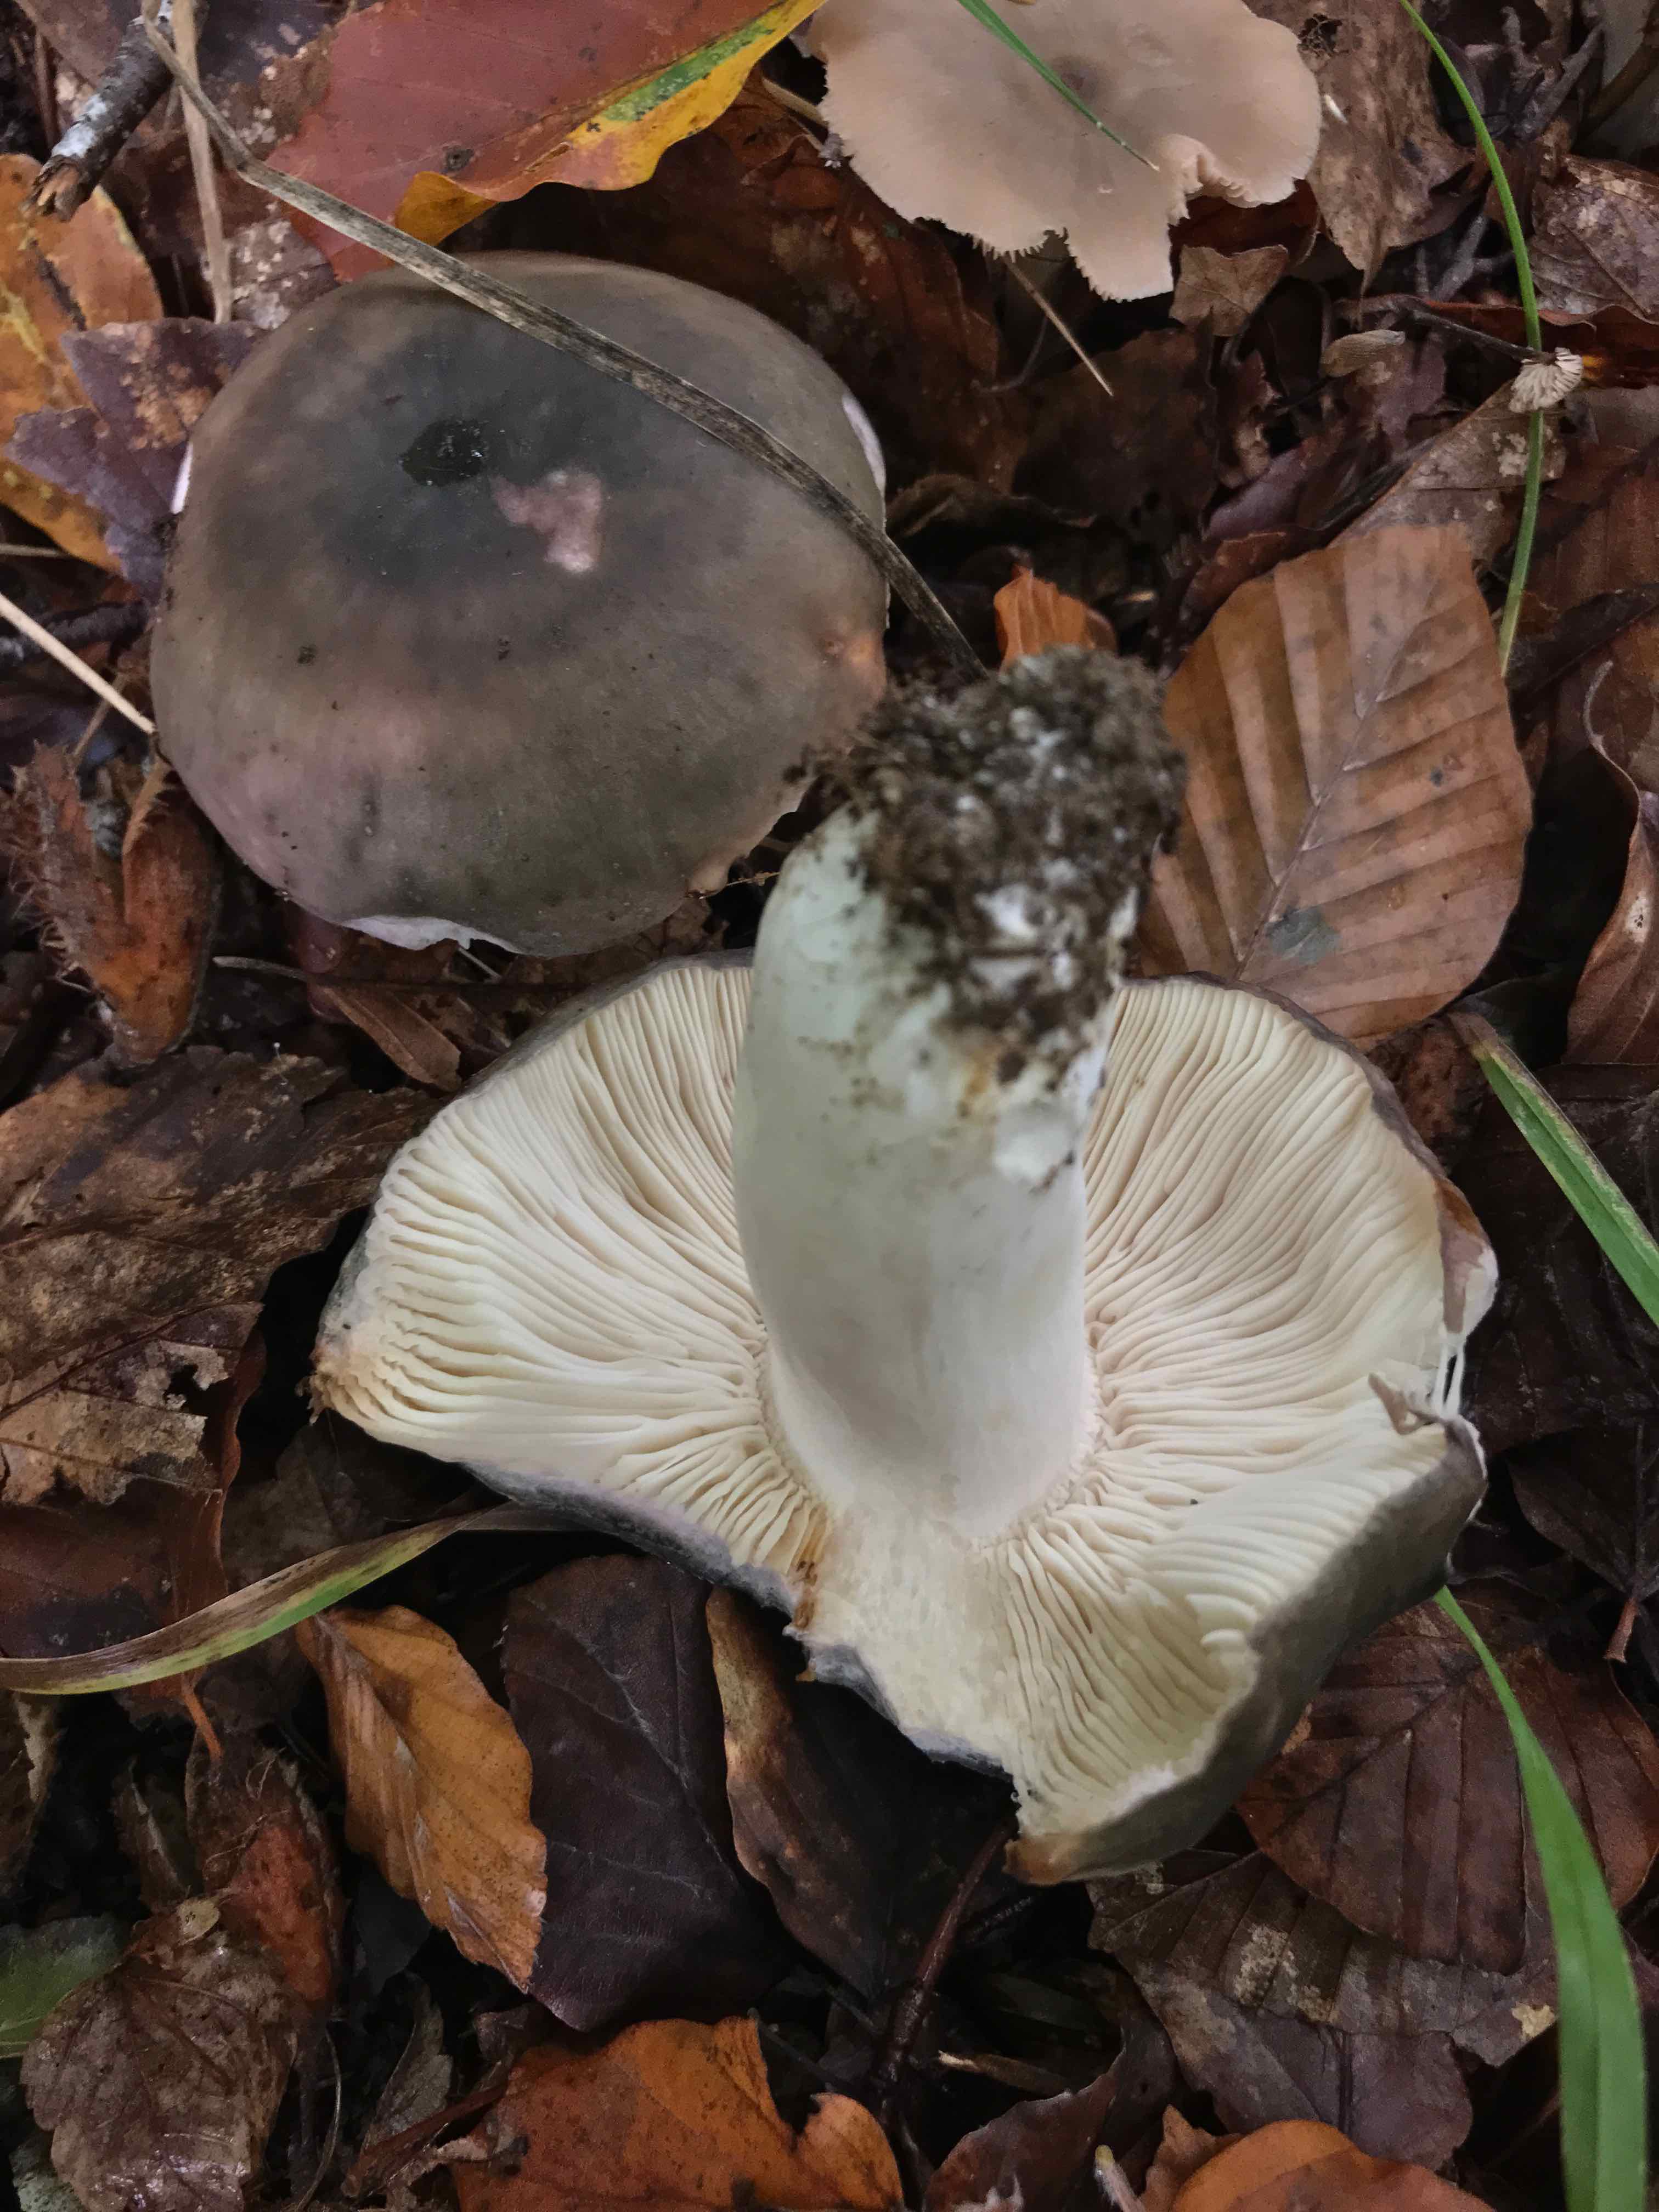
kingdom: Fungi
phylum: Basidiomycota
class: Agaricomycetes
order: Russulales
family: Russulaceae
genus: Russula
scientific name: Russula cyanoxantha
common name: broget skørhat
